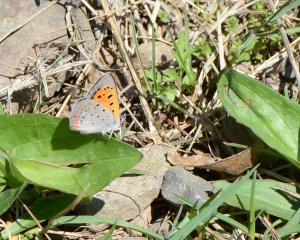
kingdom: Animalia
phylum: Arthropoda
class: Insecta
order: Lepidoptera
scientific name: Lepidoptera
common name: Butterflies
